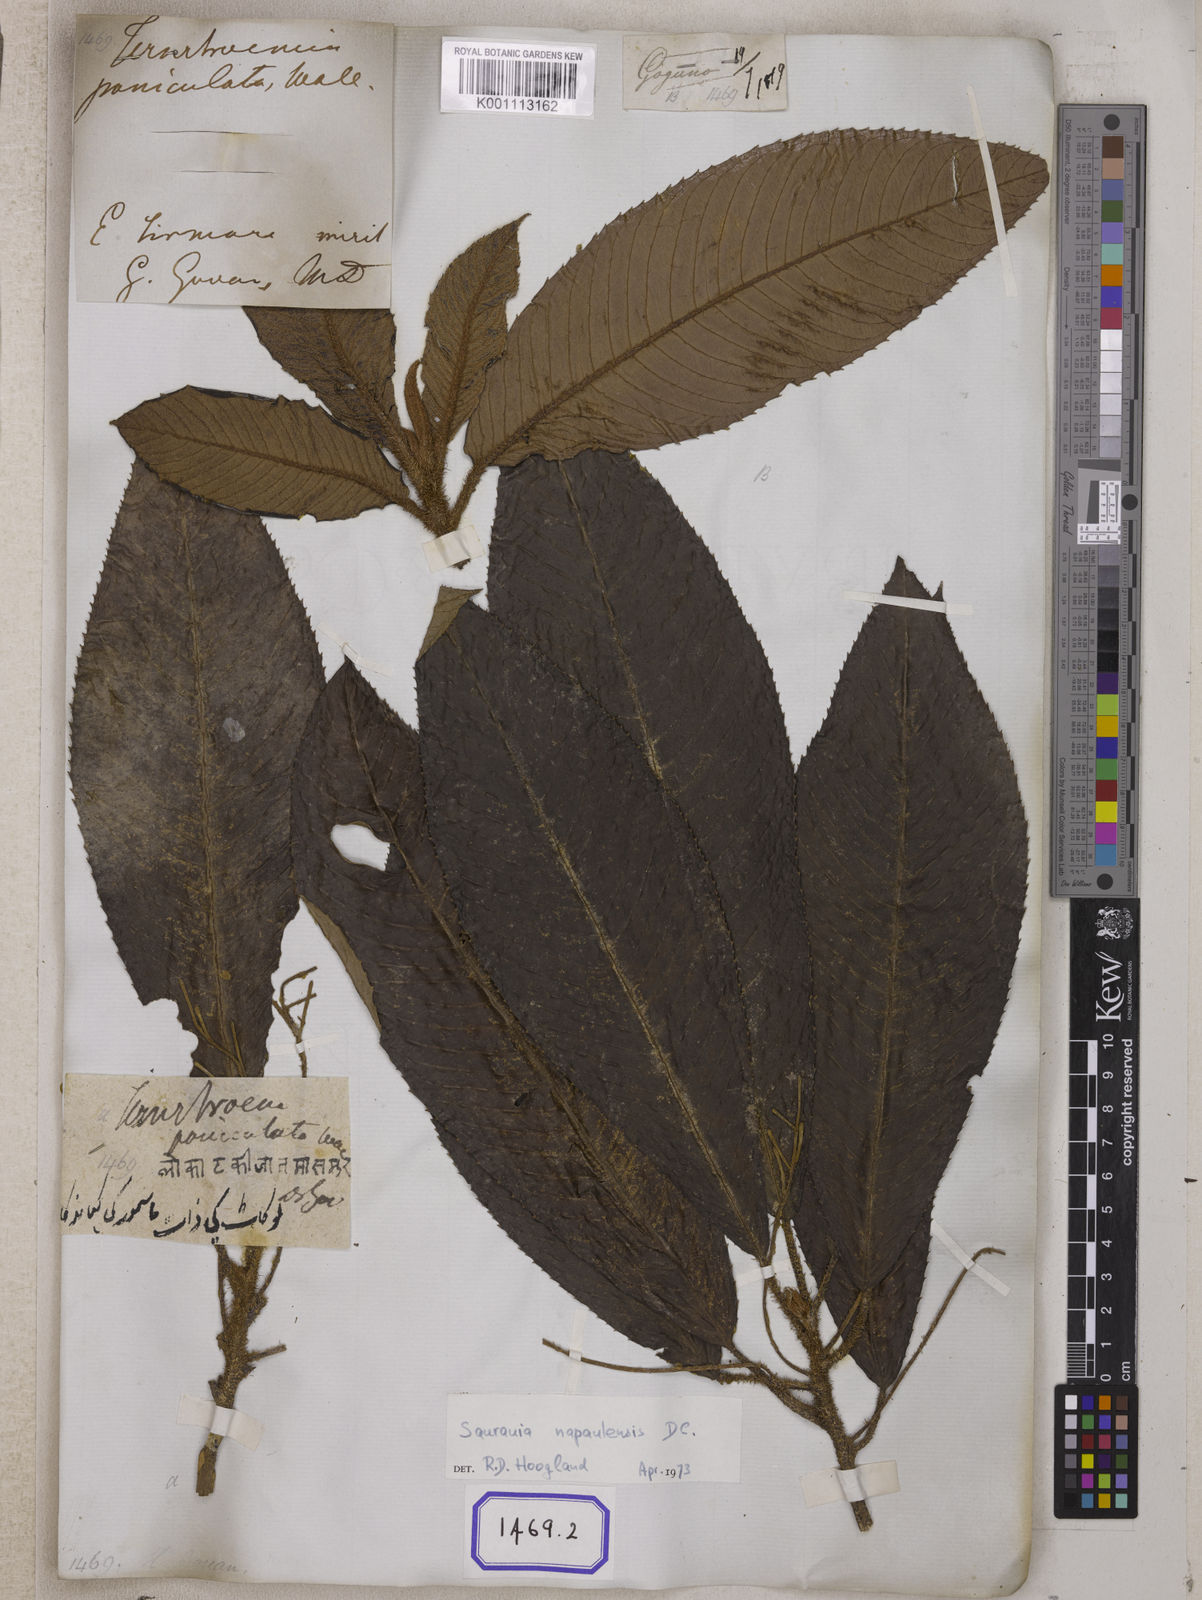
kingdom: Plantae
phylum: Tracheophyta
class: Magnoliopsida
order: Ericales
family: Actinidiaceae
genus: Saurauia
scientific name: Saurauia
